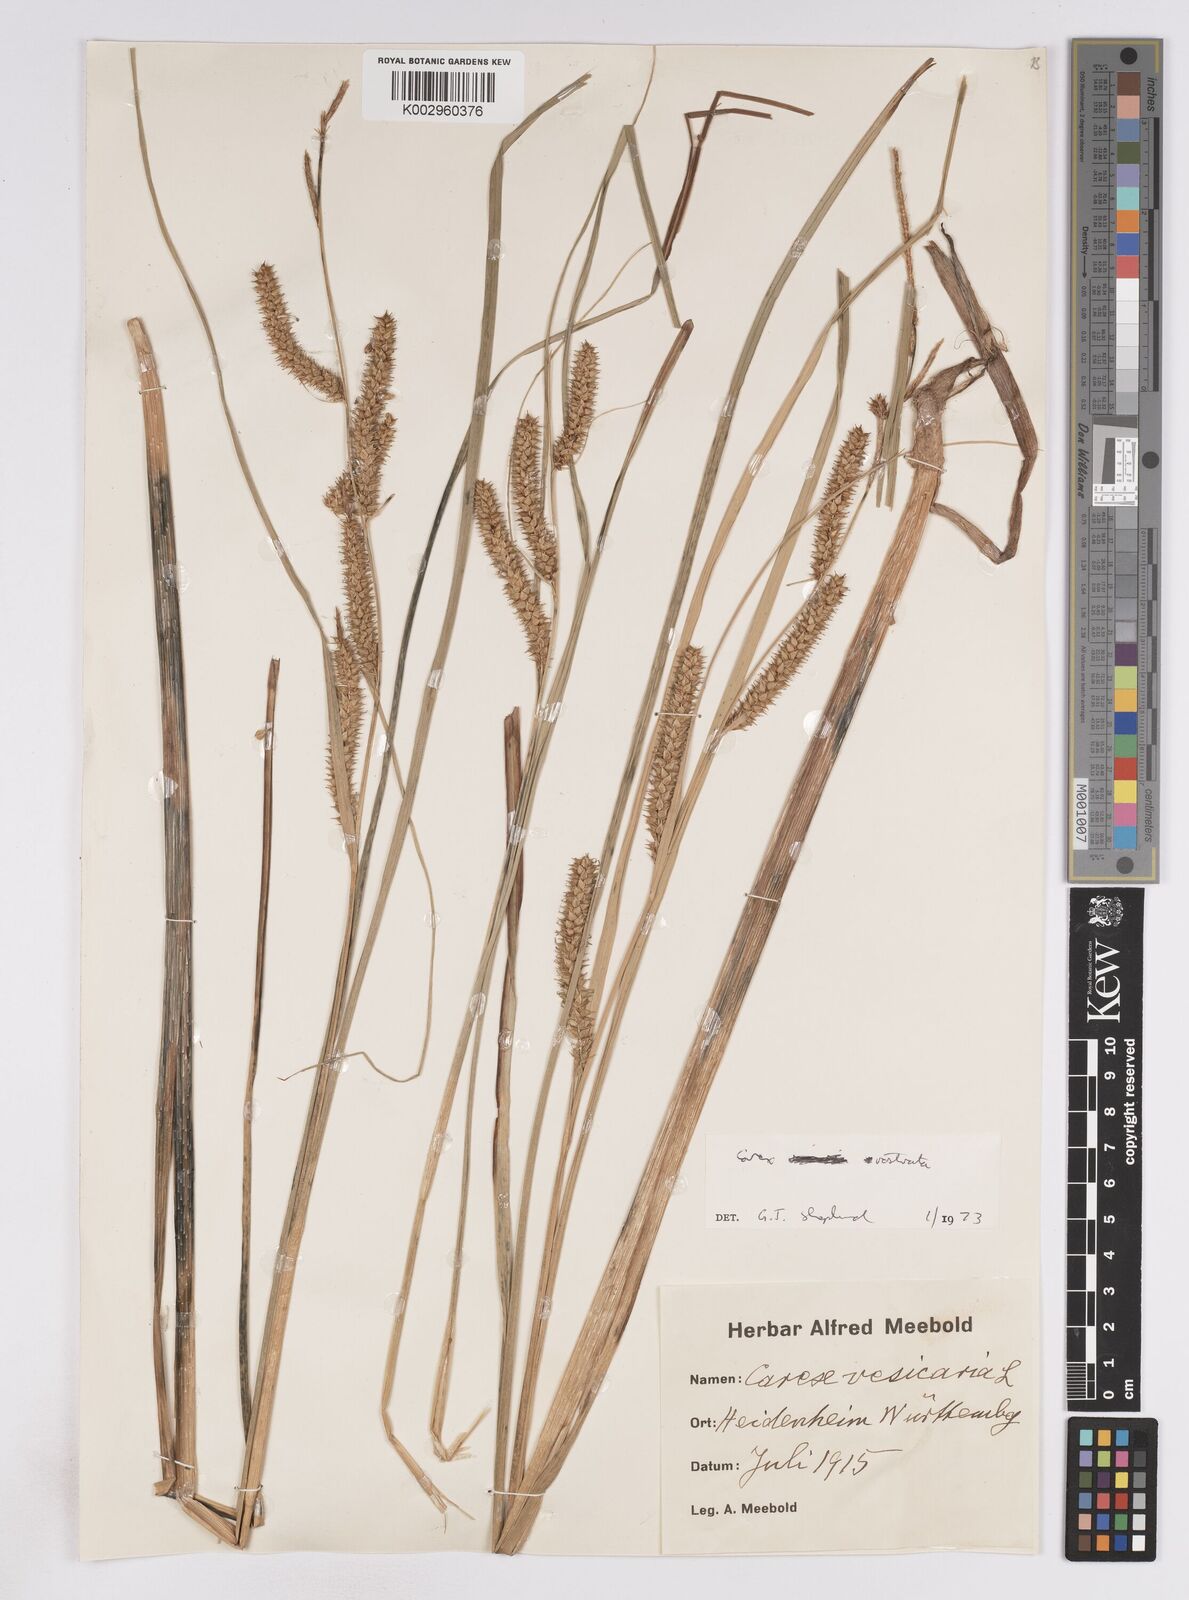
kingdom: Plantae
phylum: Tracheophyta
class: Liliopsida
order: Poales
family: Cyperaceae
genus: Carex
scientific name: Carex vesicaria
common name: Bladder-sedge
